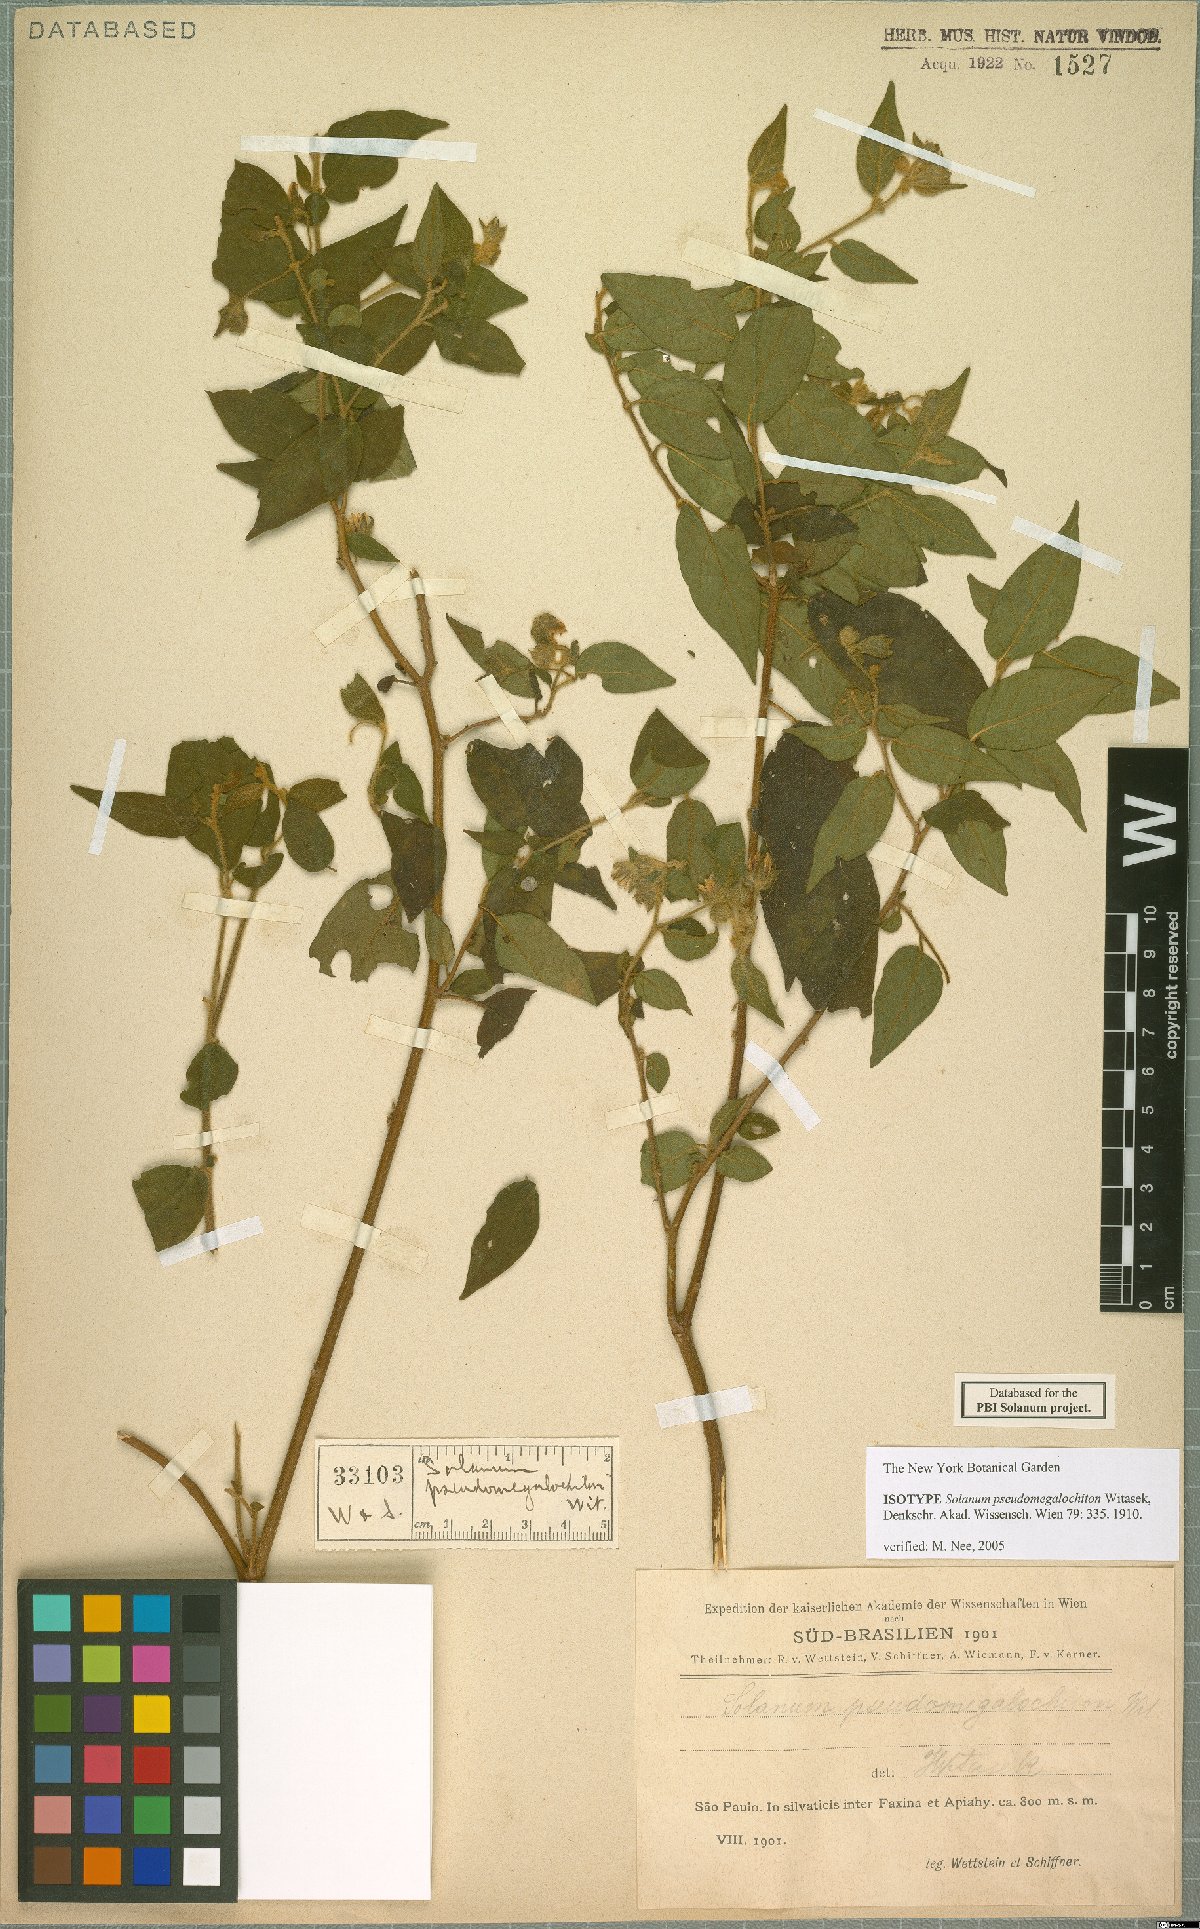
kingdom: Plantae
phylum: Tracheophyta
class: Magnoliopsida
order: Solanales
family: Solanaceae
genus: Solanum
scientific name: Solanum megalochiton
